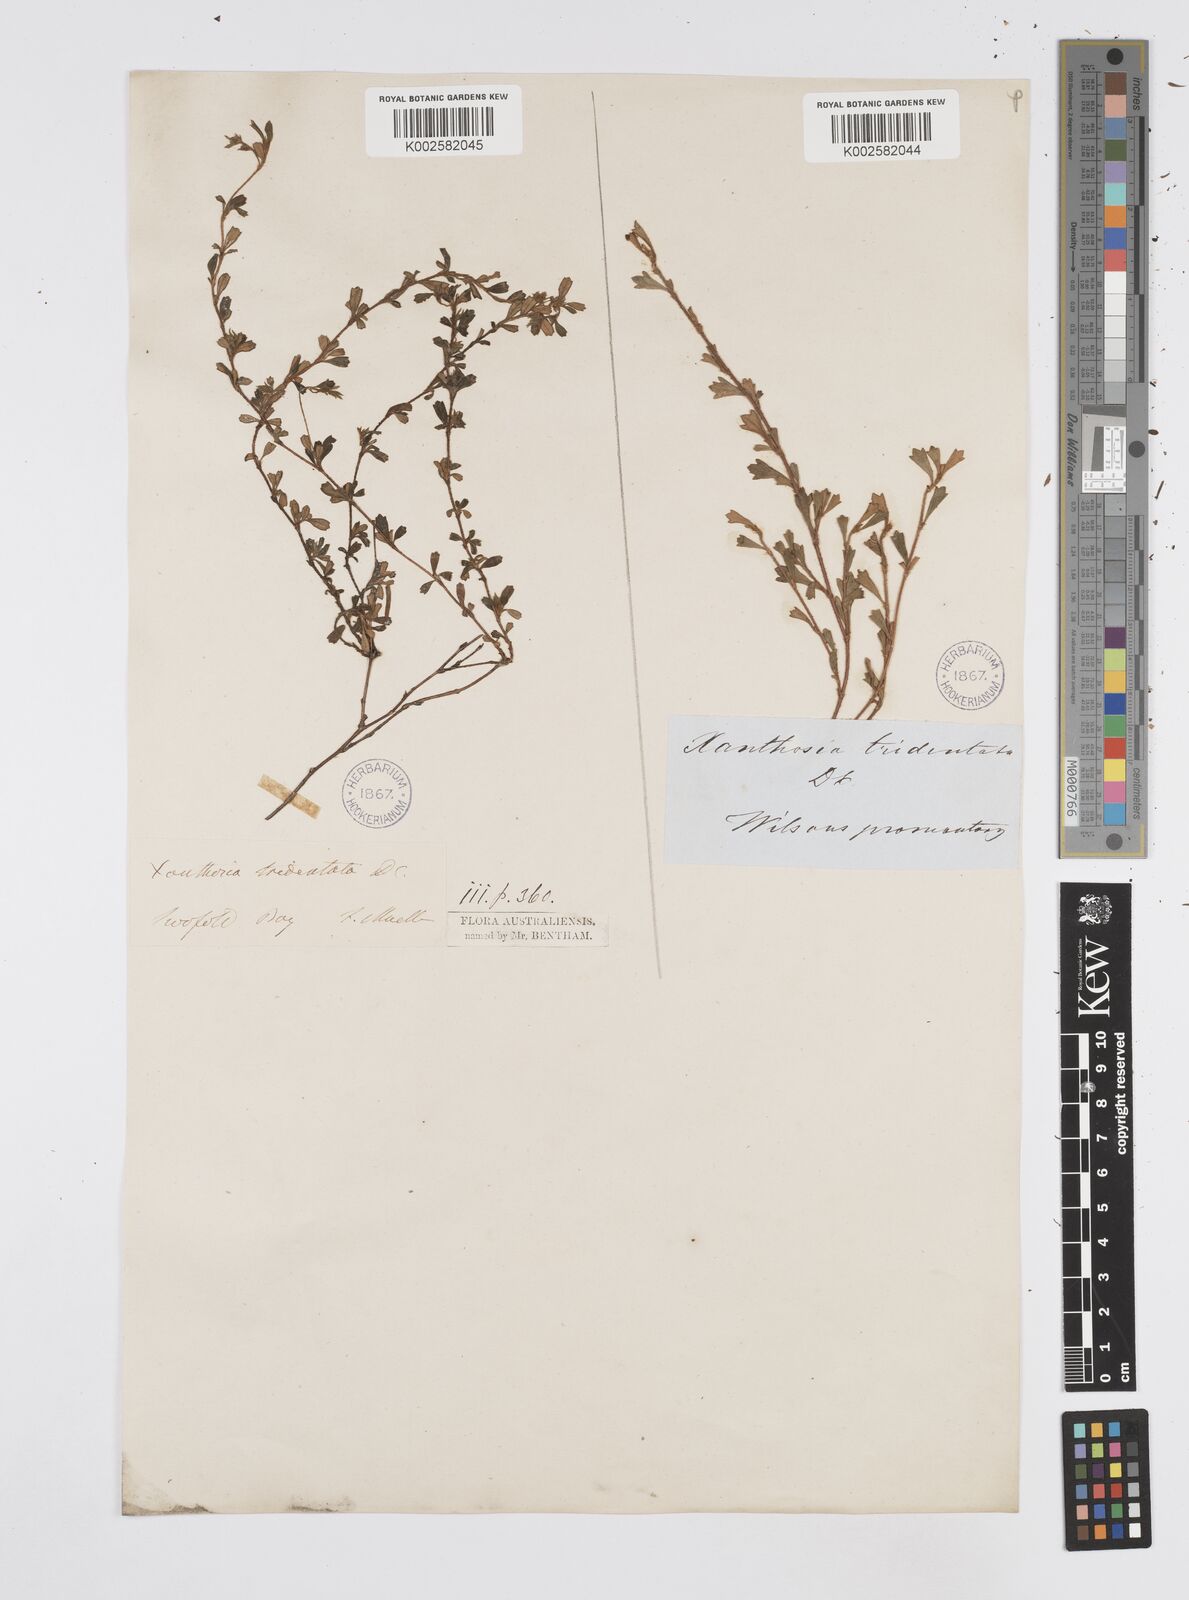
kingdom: Plantae
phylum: Tracheophyta
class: Magnoliopsida
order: Apiales
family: Apiaceae
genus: Xanthosia
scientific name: Xanthosia tridentata
